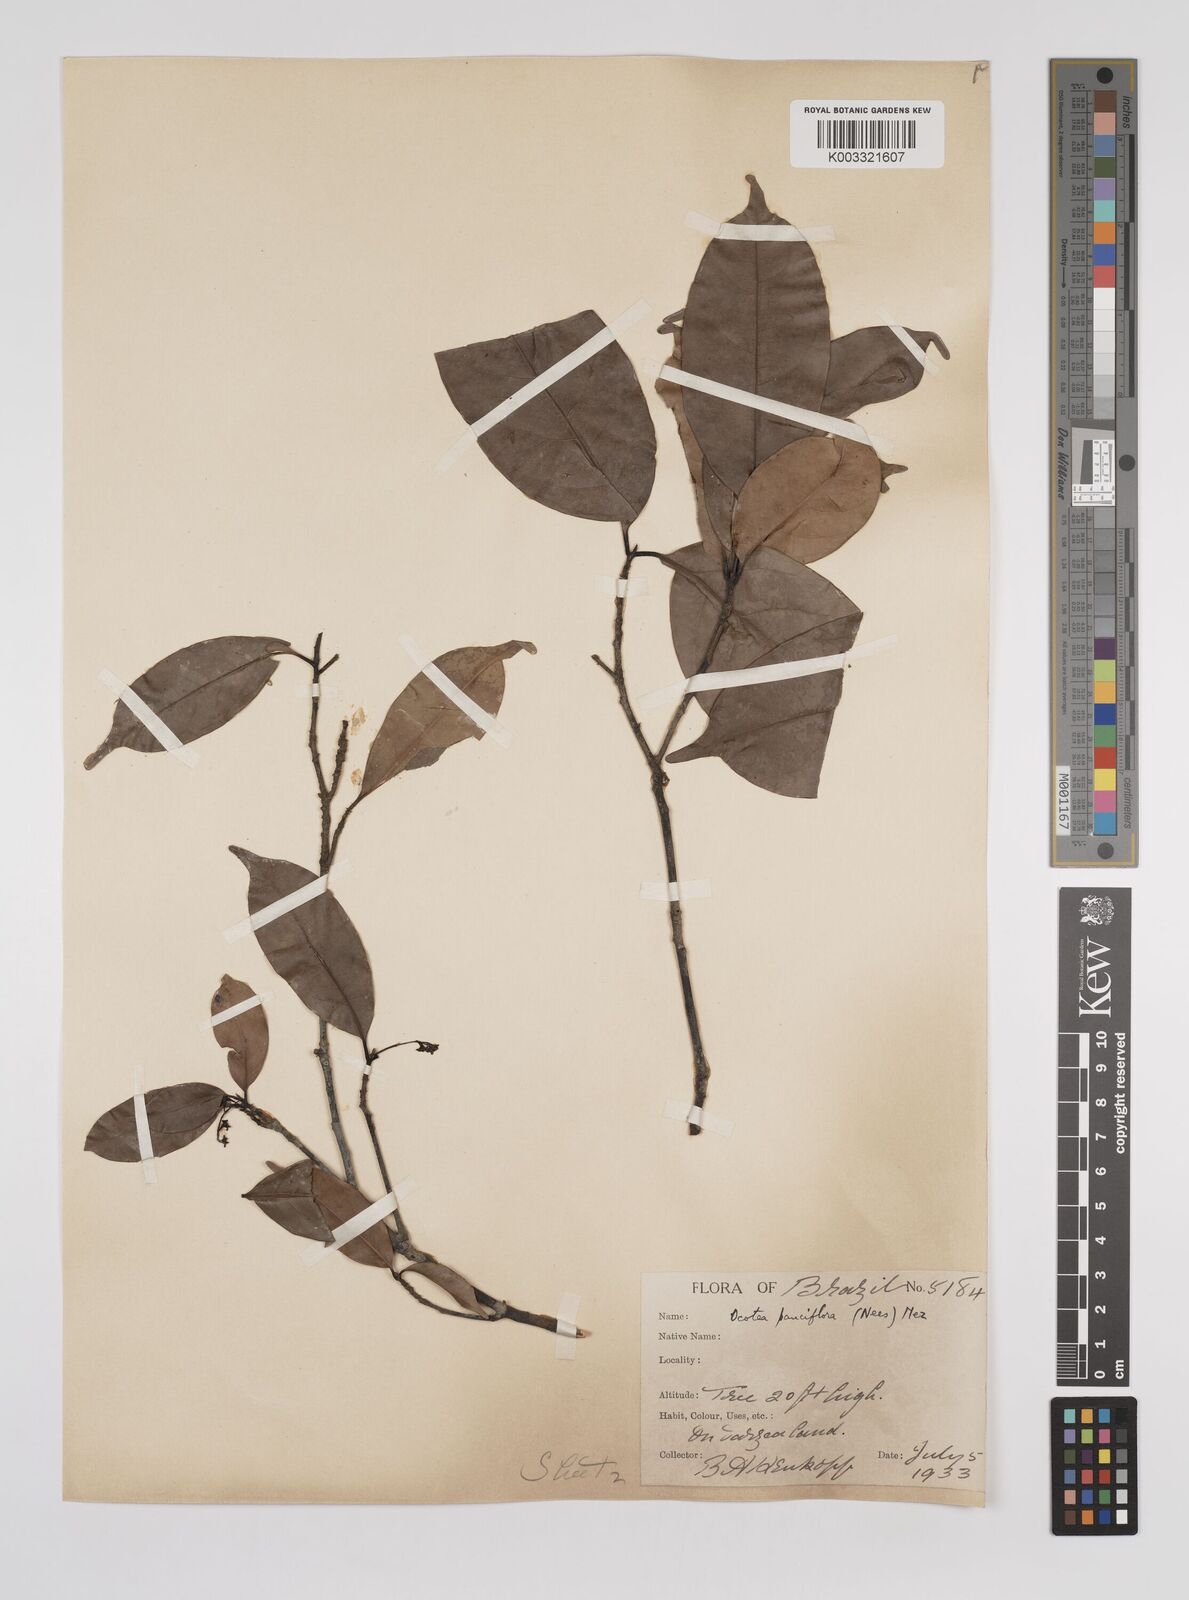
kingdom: Plantae
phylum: Tracheophyta
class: Magnoliopsida
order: Laurales
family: Lauraceae
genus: Ocotea
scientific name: Ocotea pauciflora
